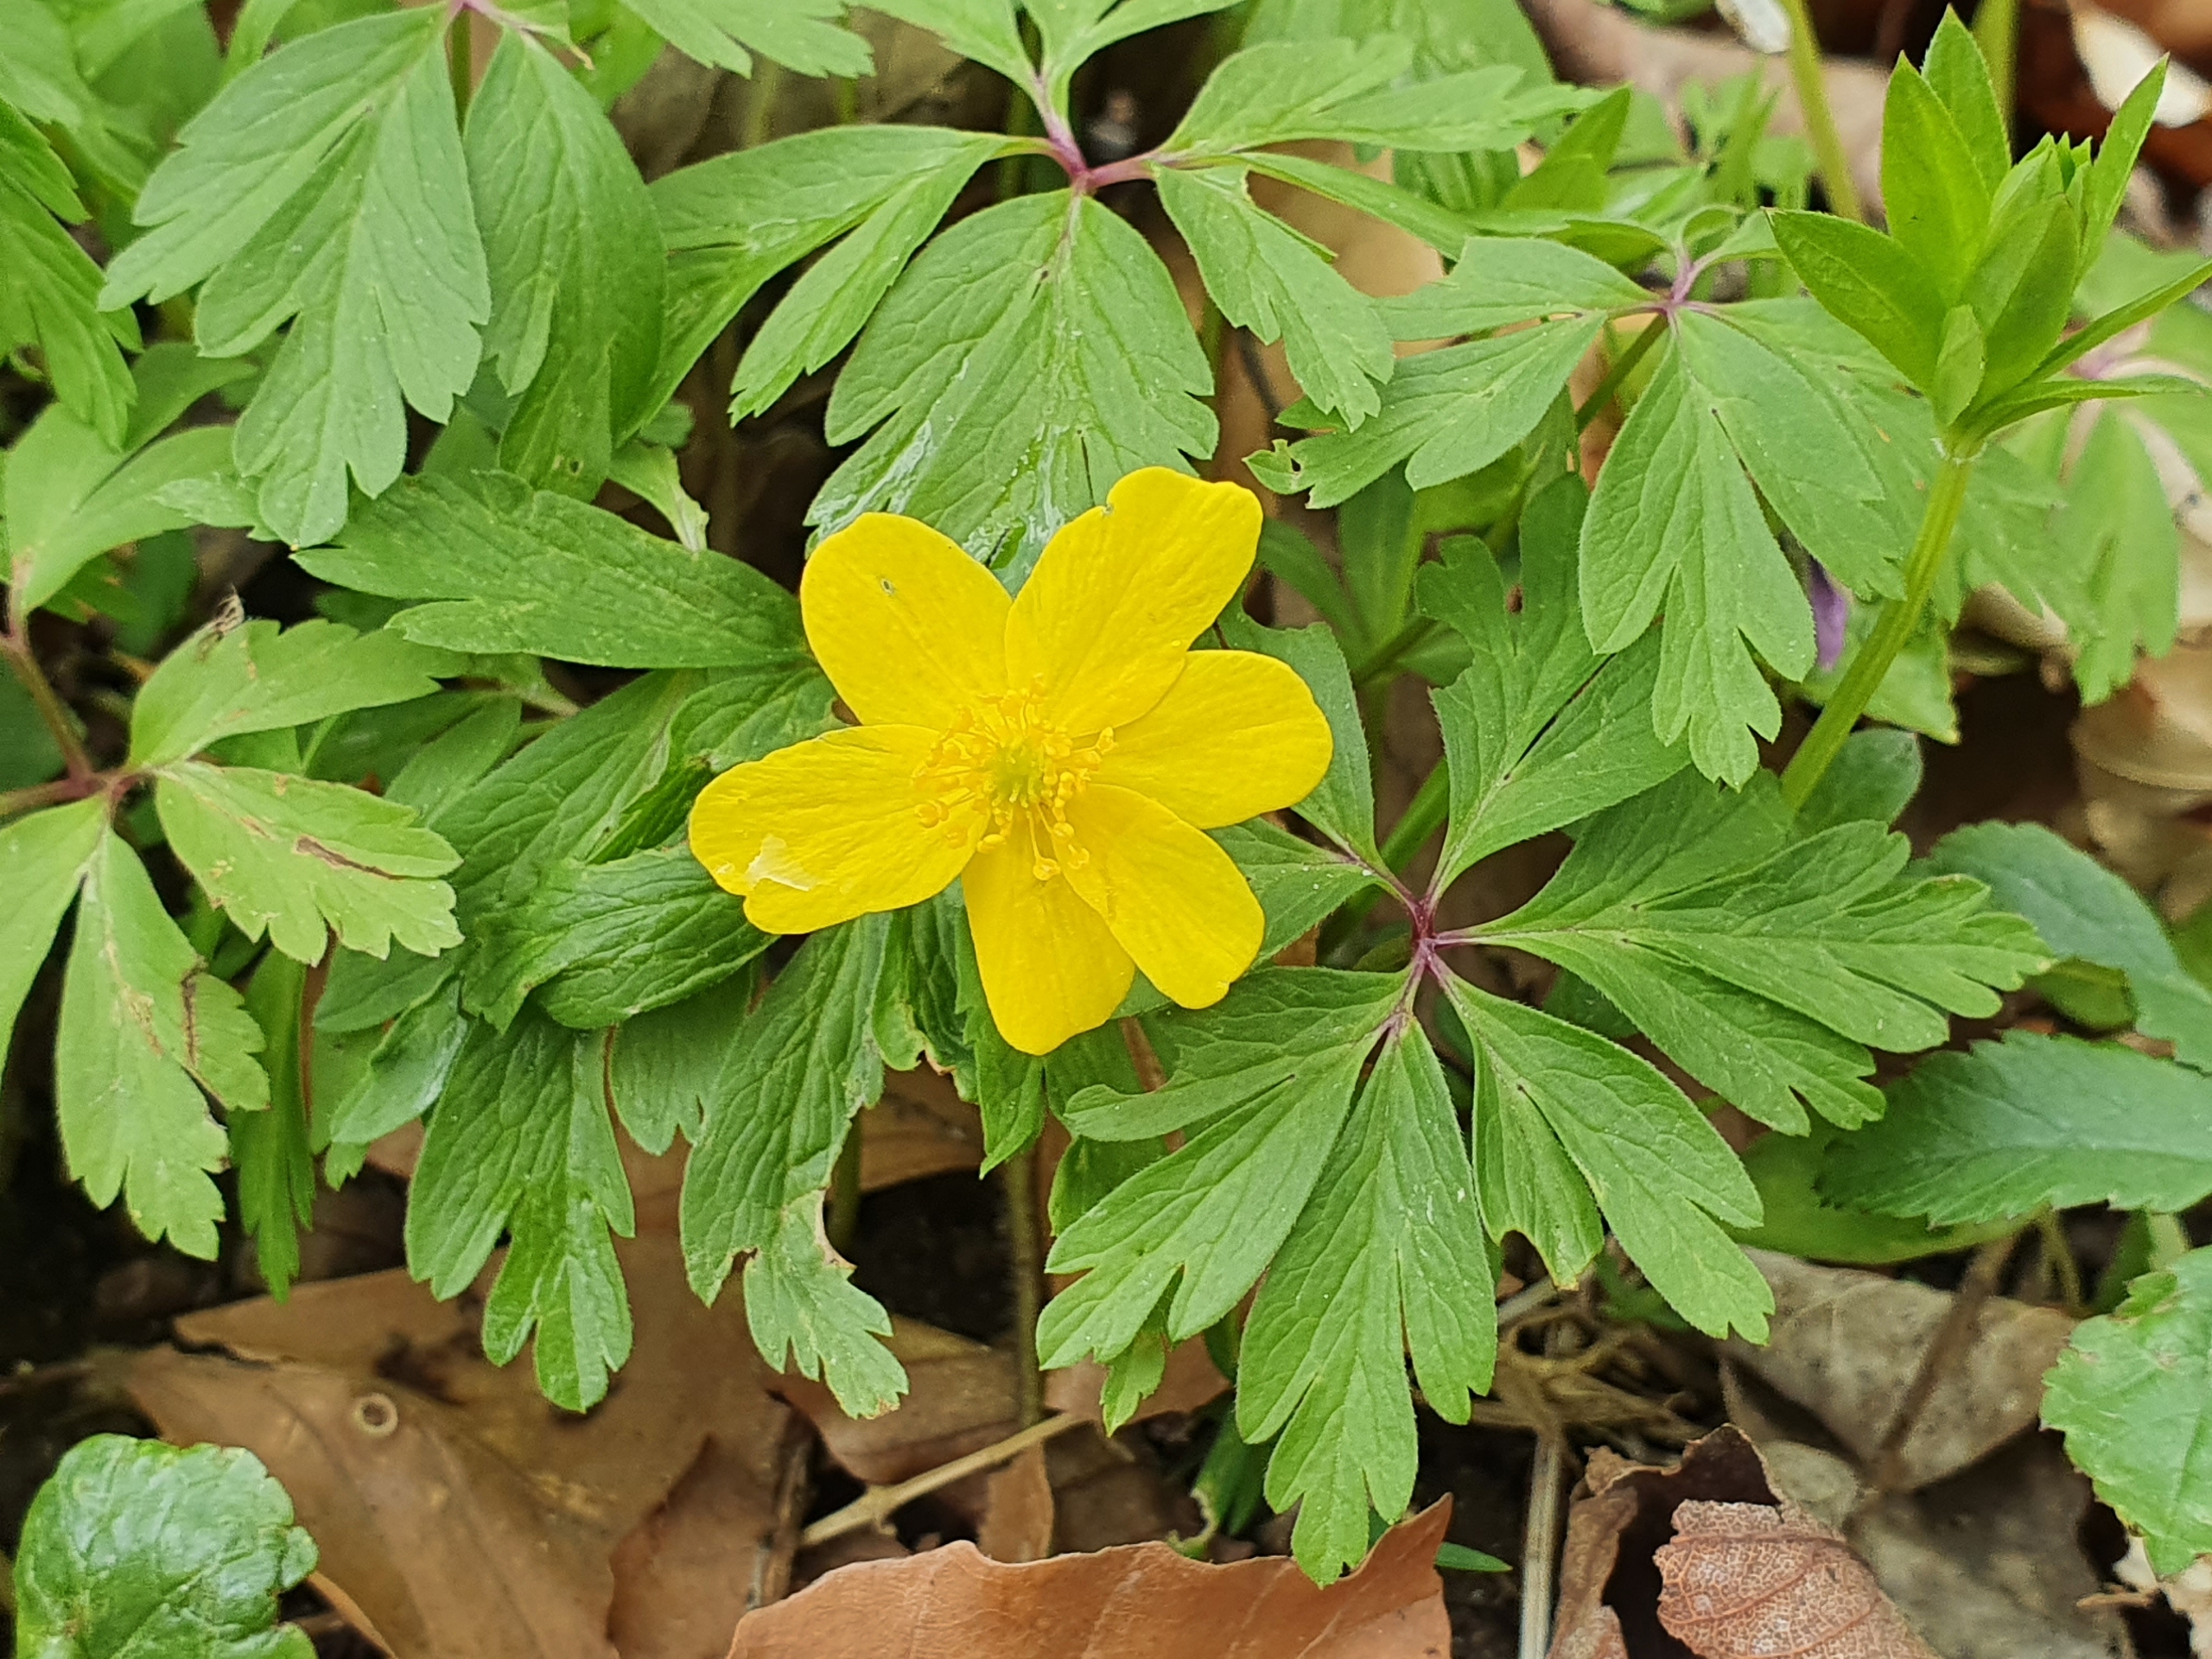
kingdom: Plantae
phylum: Tracheophyta
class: Magnoliopsida
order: Ranunculales
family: Ranunculaceae
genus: Anemone
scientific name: Anemone ranunculoides
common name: Gul anemone
